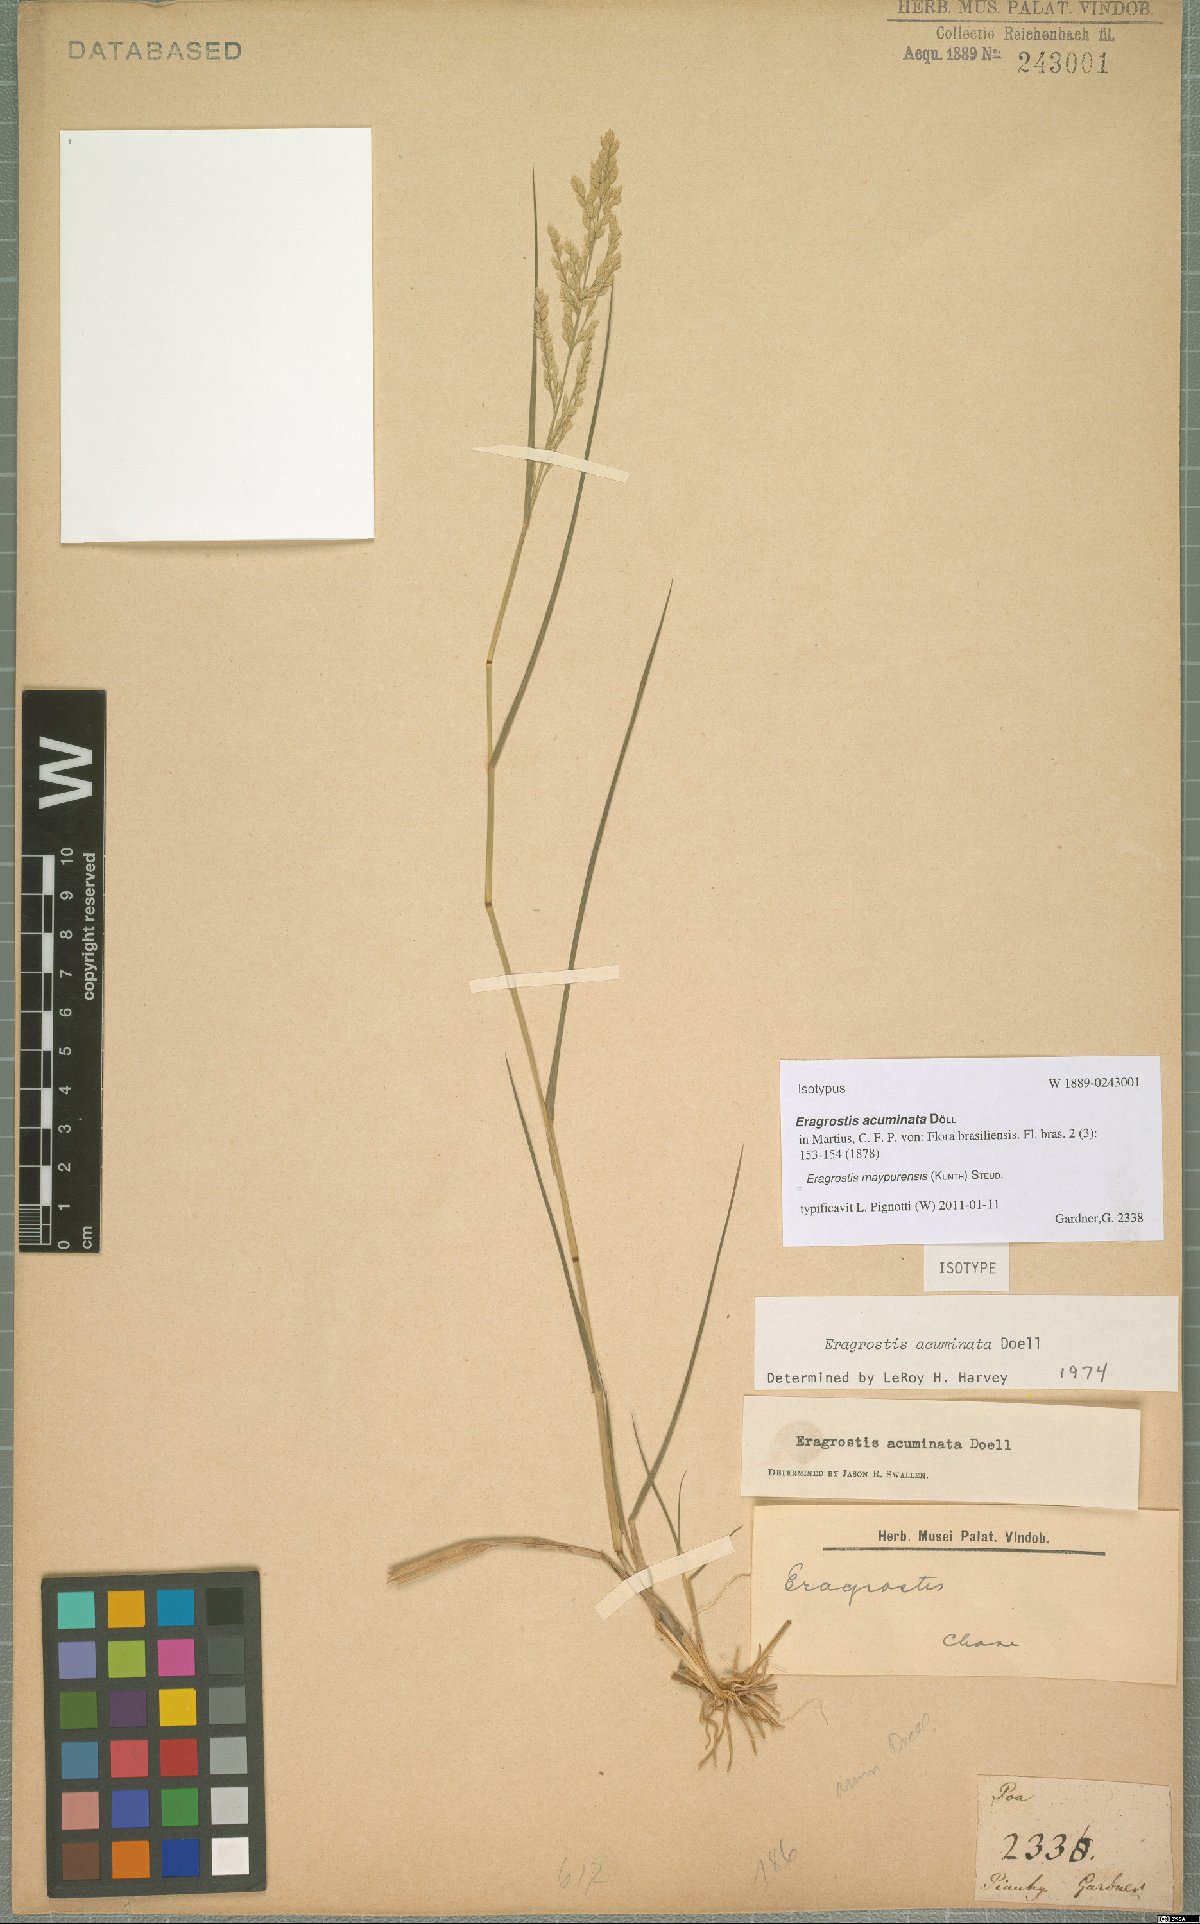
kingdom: Plantae
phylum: Tracheophyta
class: Liliopsida
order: Poales
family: Poaceae
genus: Eragrostis
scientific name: Eragrostis maypurensis
